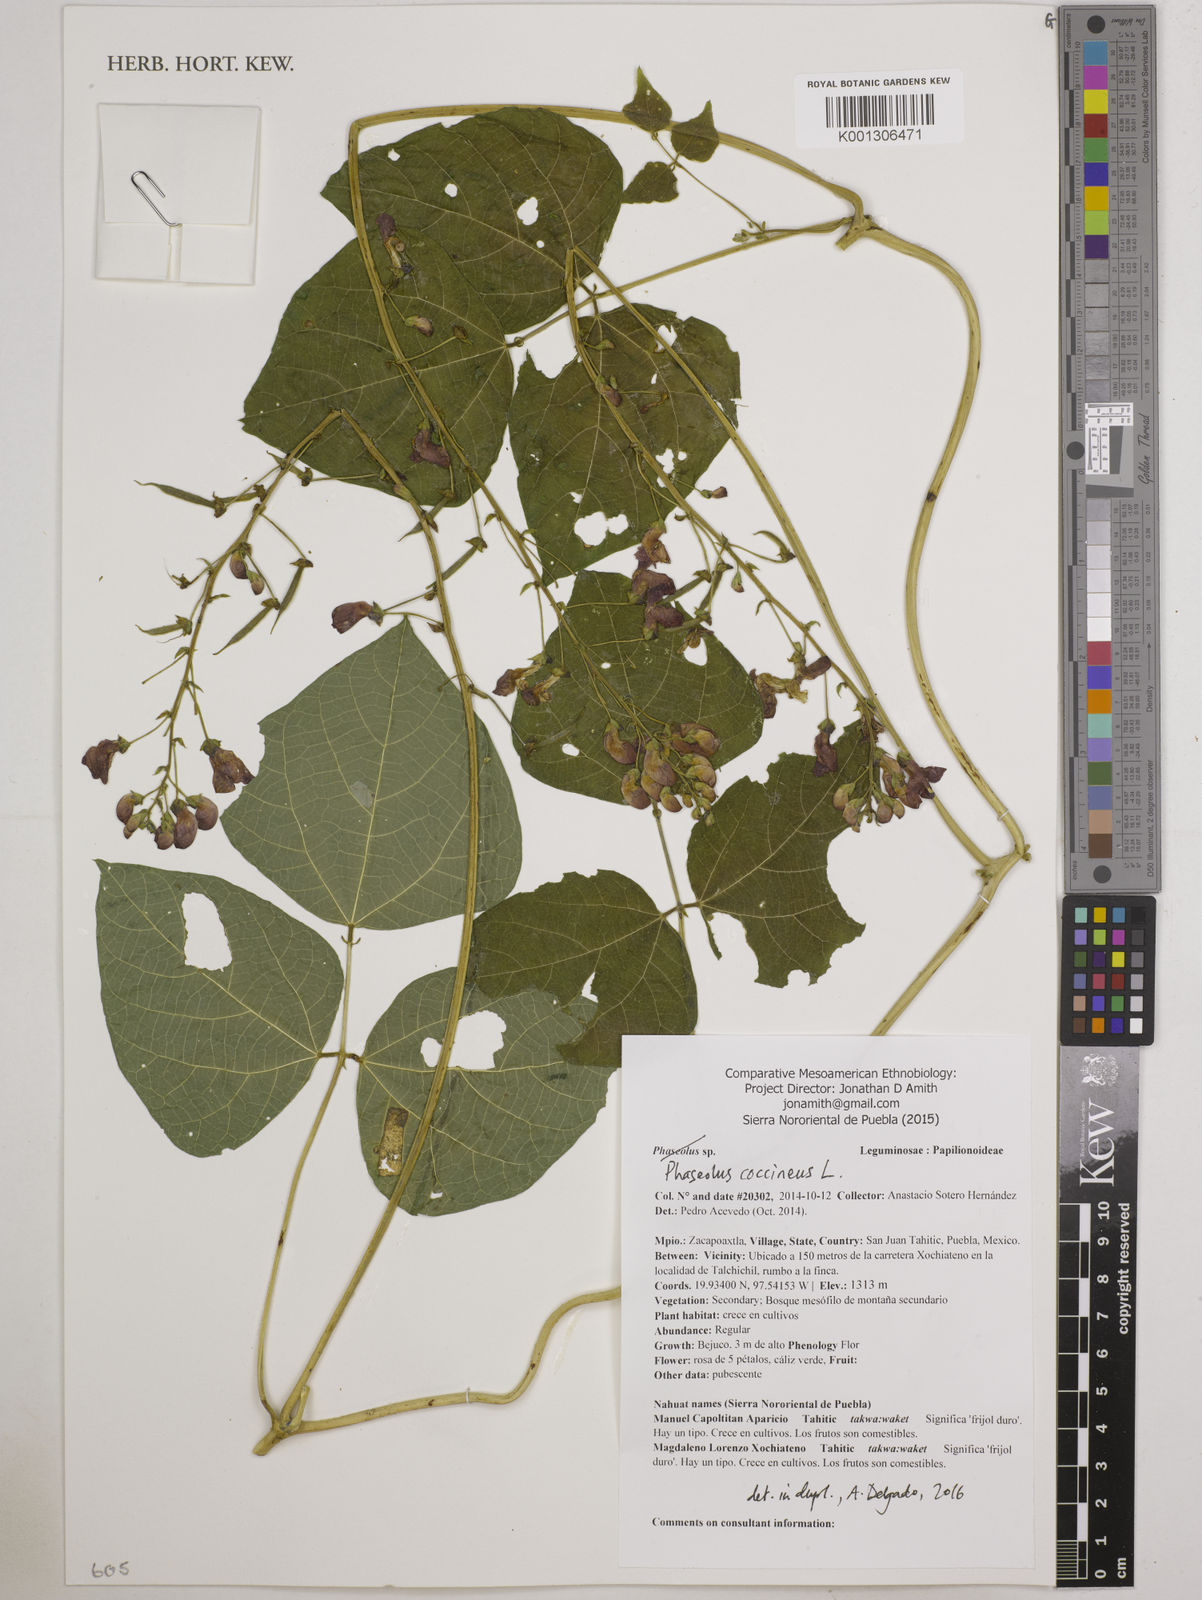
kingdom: Plantae
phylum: Tracheophyta
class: Magnoliopsida
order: Fabales
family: Fabaceae
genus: Phaseolus
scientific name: Phaseolus coccineus
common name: Runner bean
